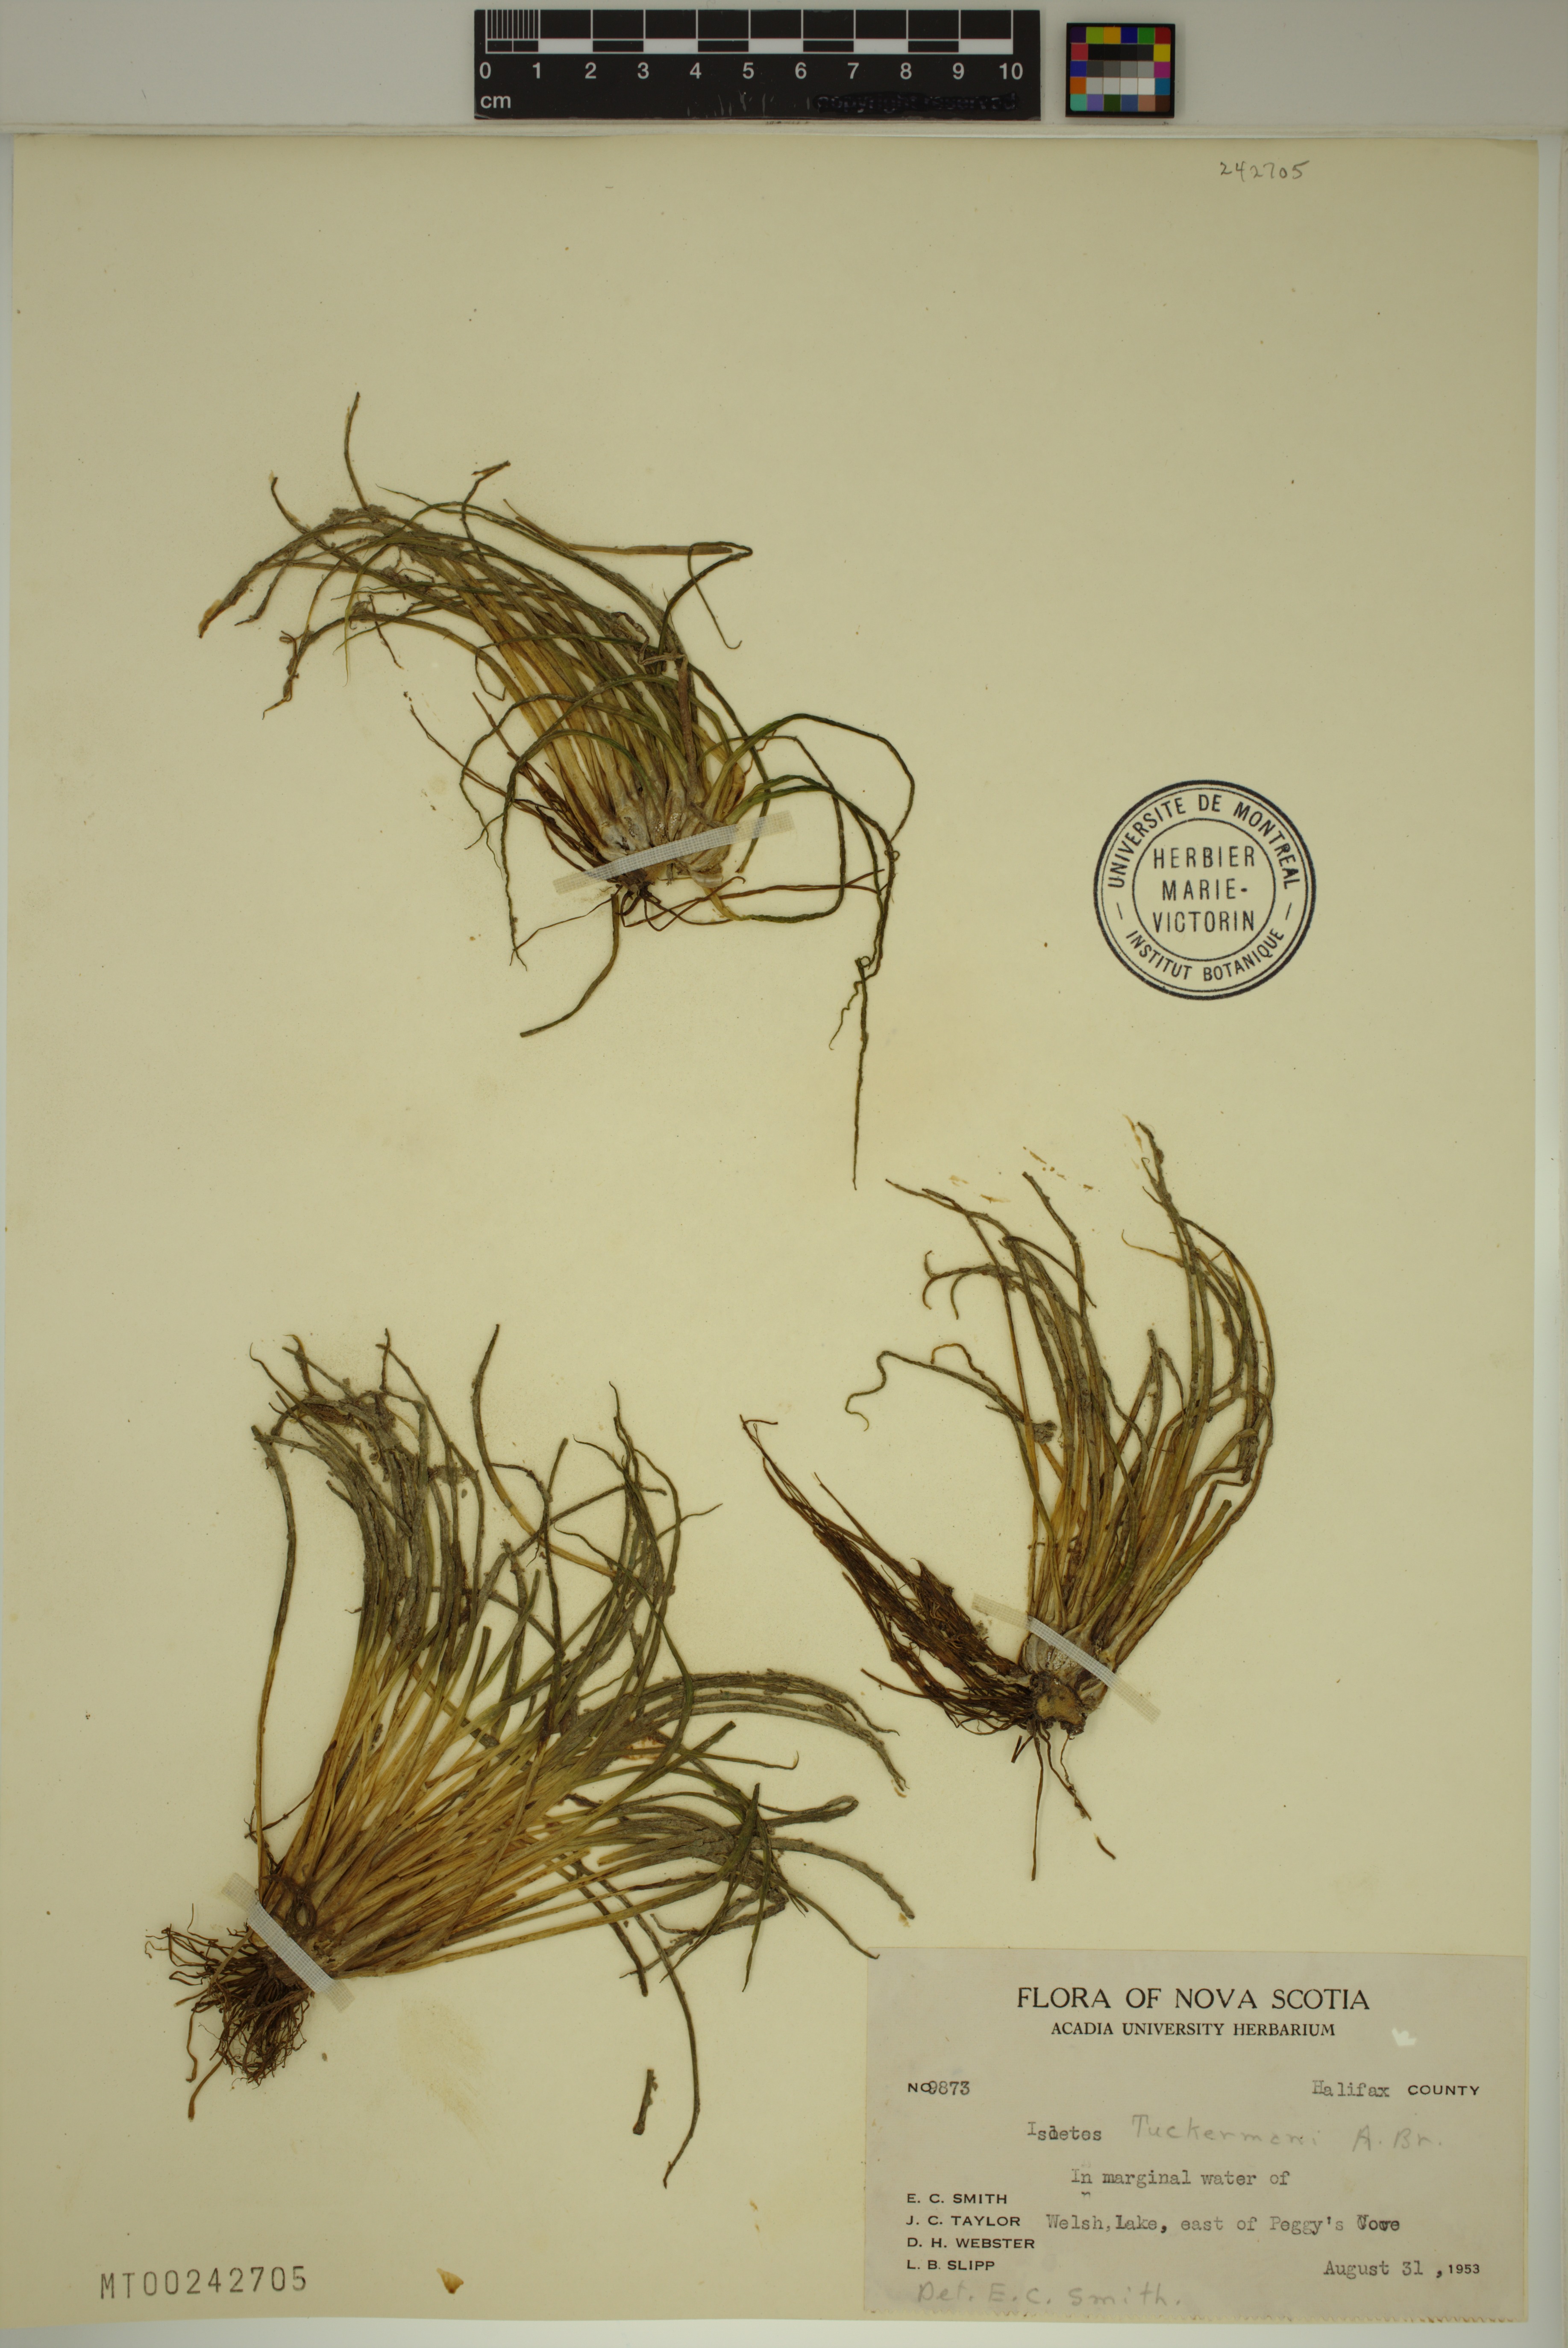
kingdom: Plantae
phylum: Tracheophyta
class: Lycopodiopsida
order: Isoetales
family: Isoetaceae
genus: Isoetes
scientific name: Isoetes tuckermanii
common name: Tuckerman's quillwort
